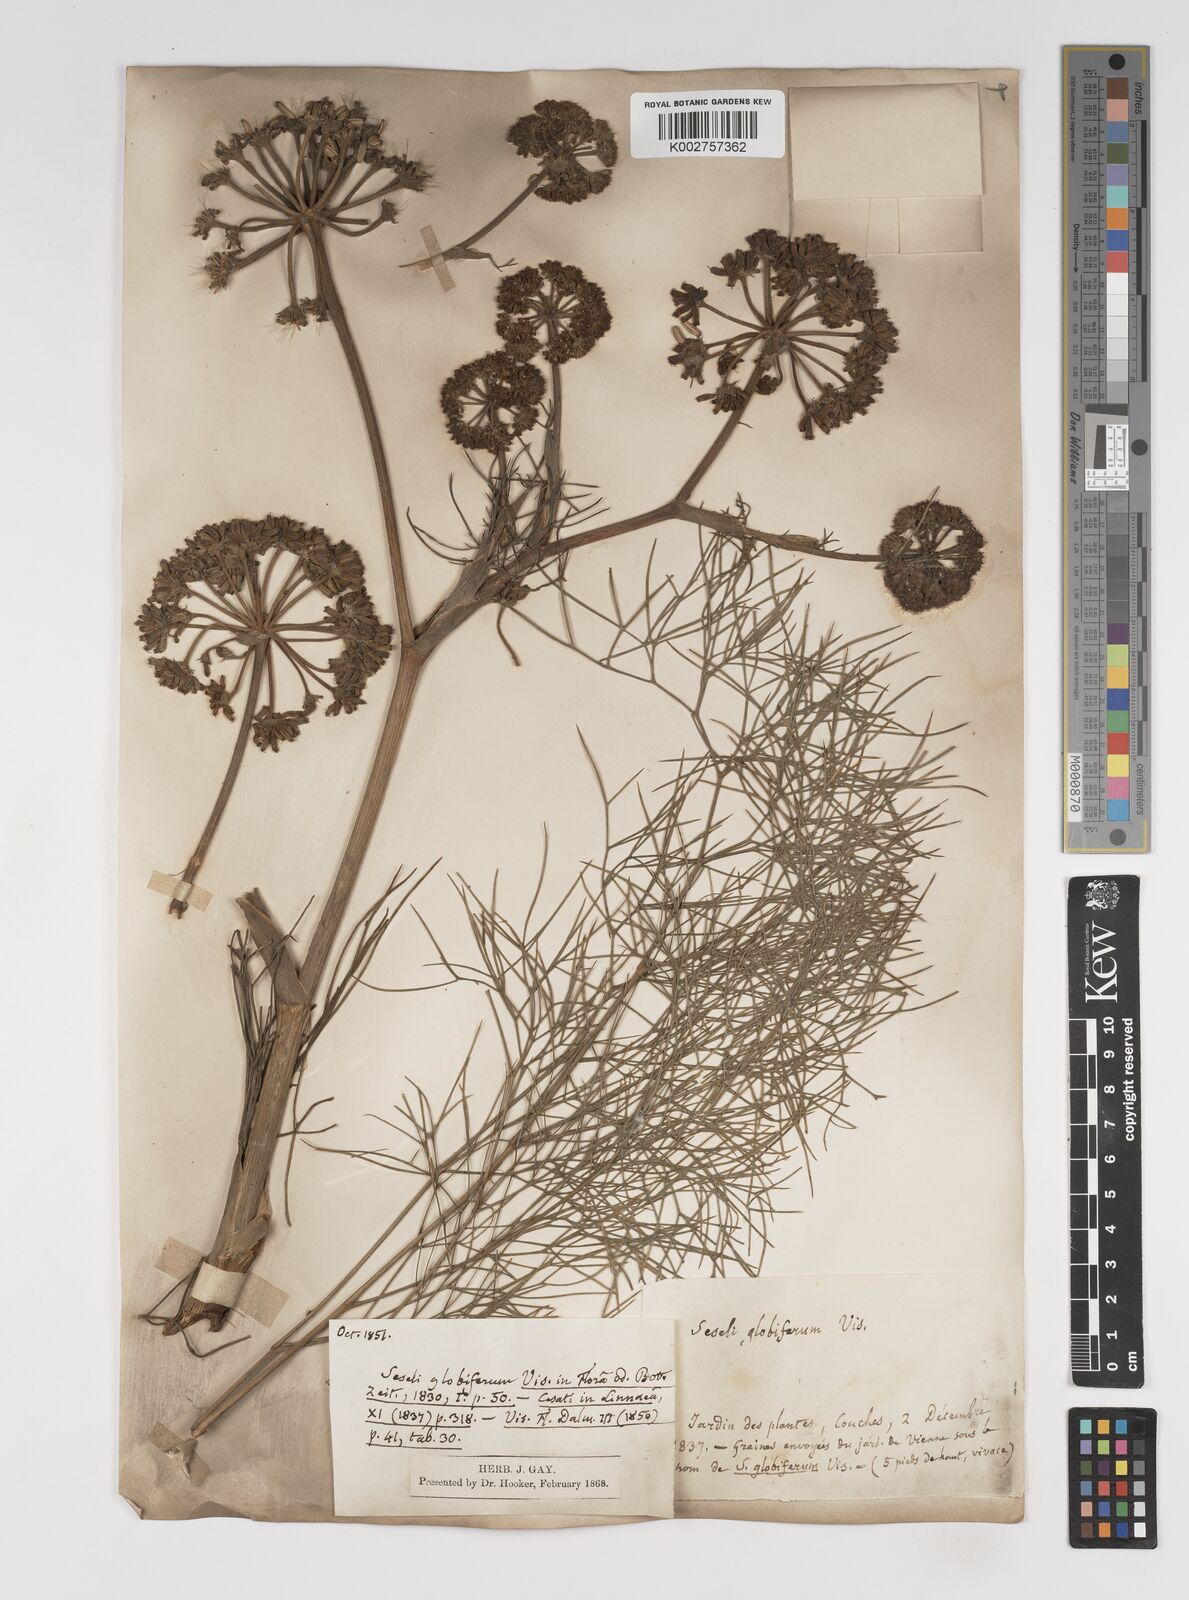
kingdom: Plantae
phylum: Tracheophyta
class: Magnoliopsida
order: Apiales
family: Apiaceae
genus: Seseli
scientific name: Seseli globiferum
